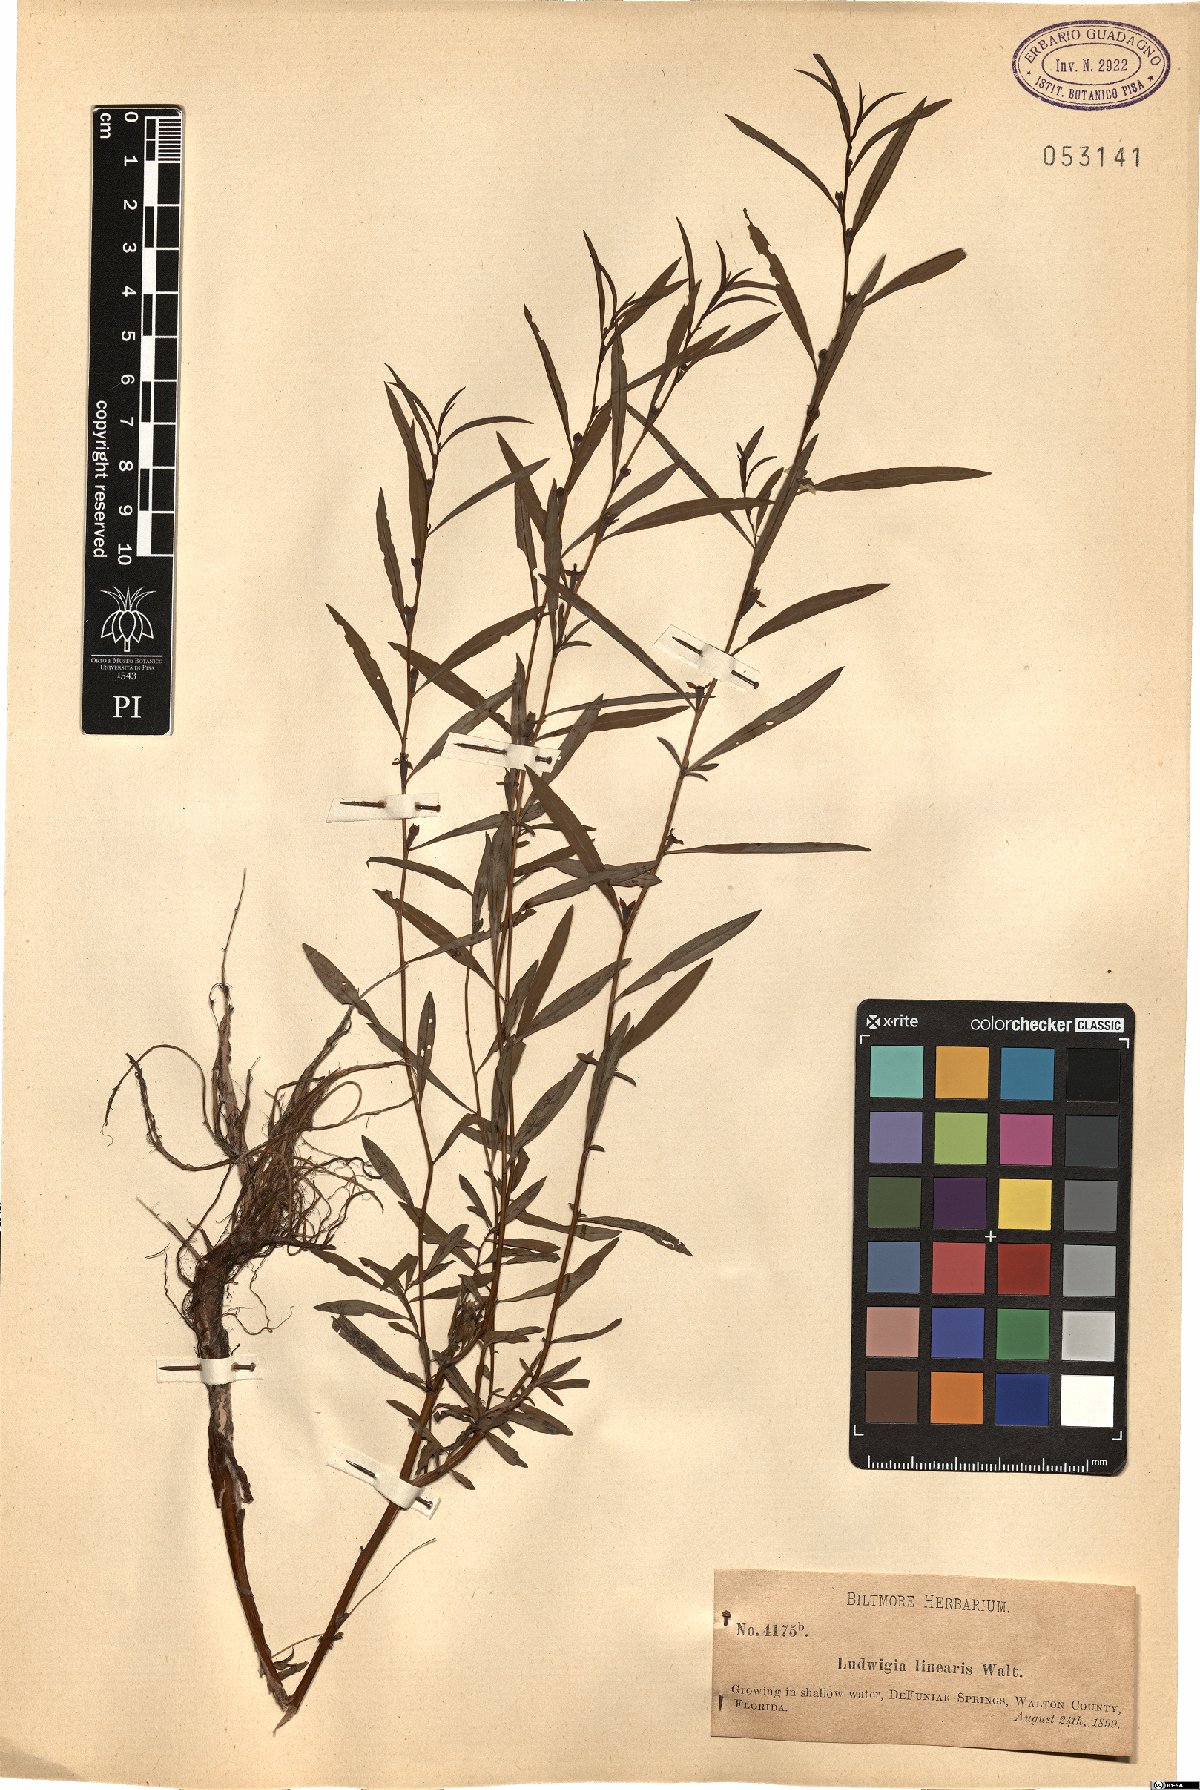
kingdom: Plantae
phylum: Tracheophyta
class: Magnoliopsida
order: Myrtales
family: Onagraceae
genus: Ludwigia
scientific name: Ludwigia linearis
